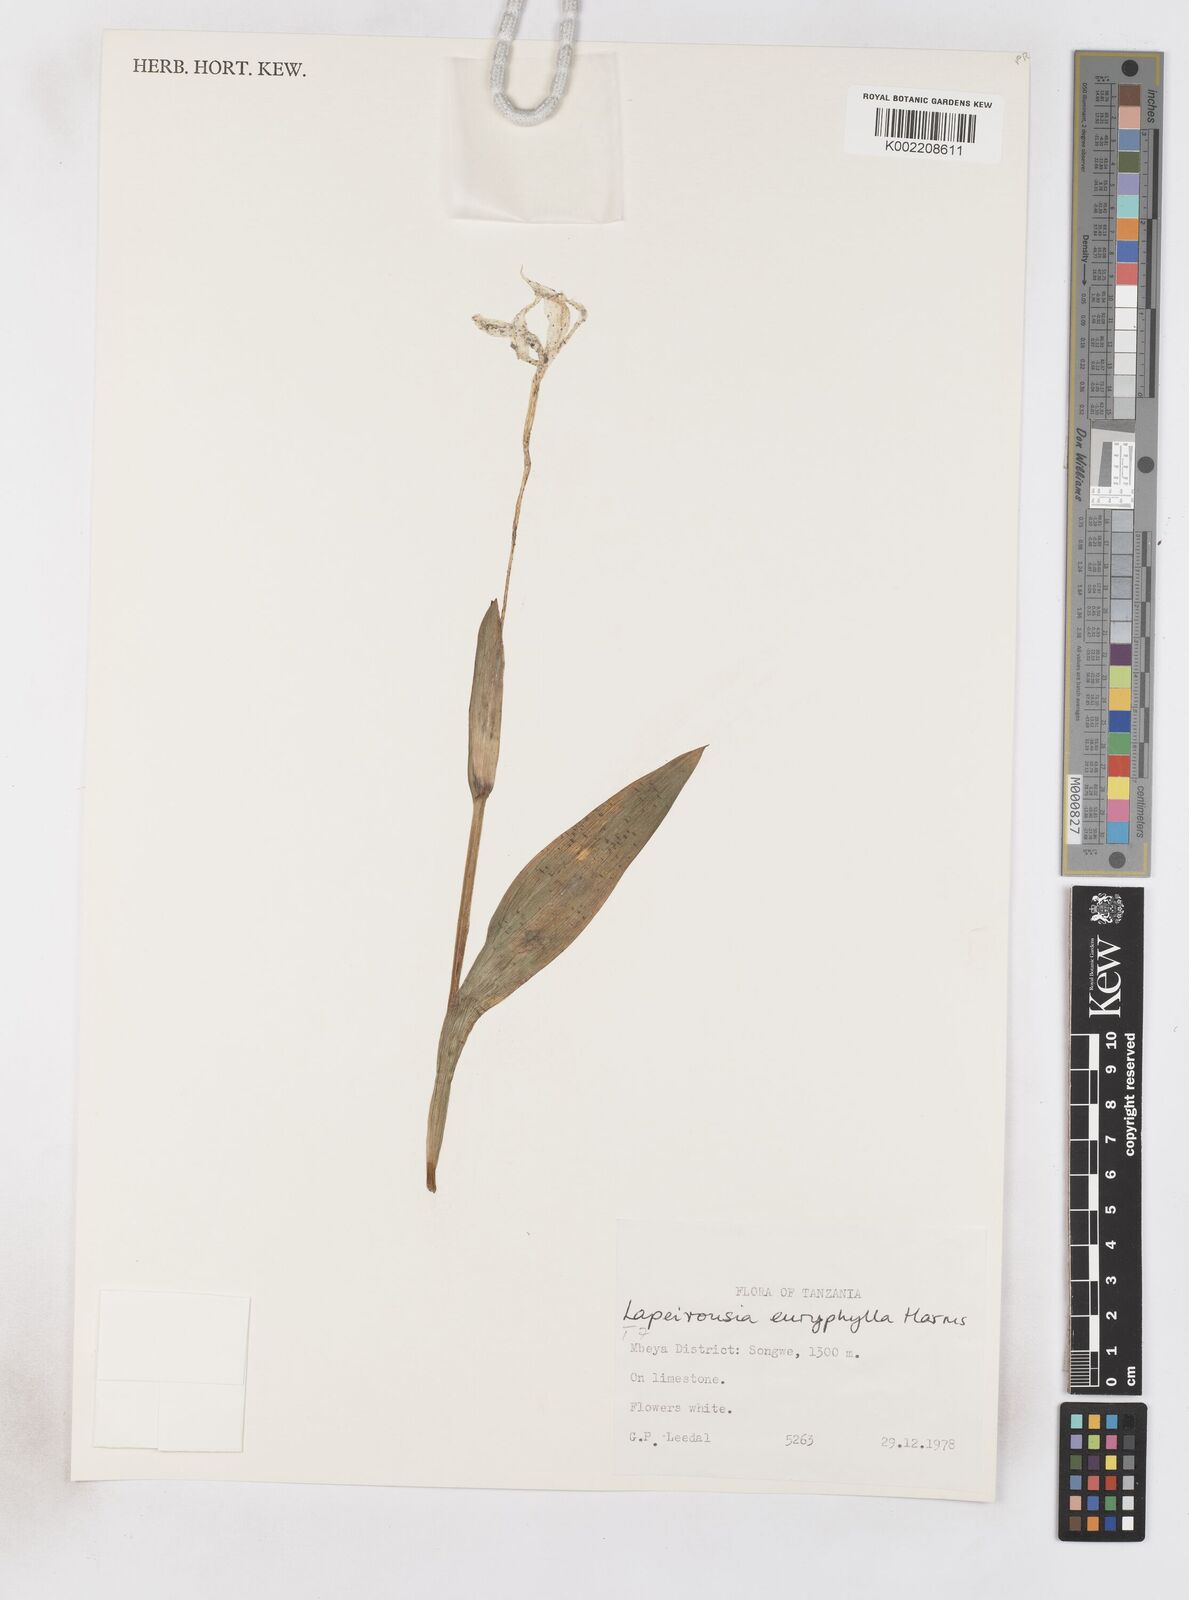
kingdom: Plantae
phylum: Tracheophyta
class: Liliopsida
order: Asparagales
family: Iridaceae
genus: Savannosiphon
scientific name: Savannosiphon euryphylla
